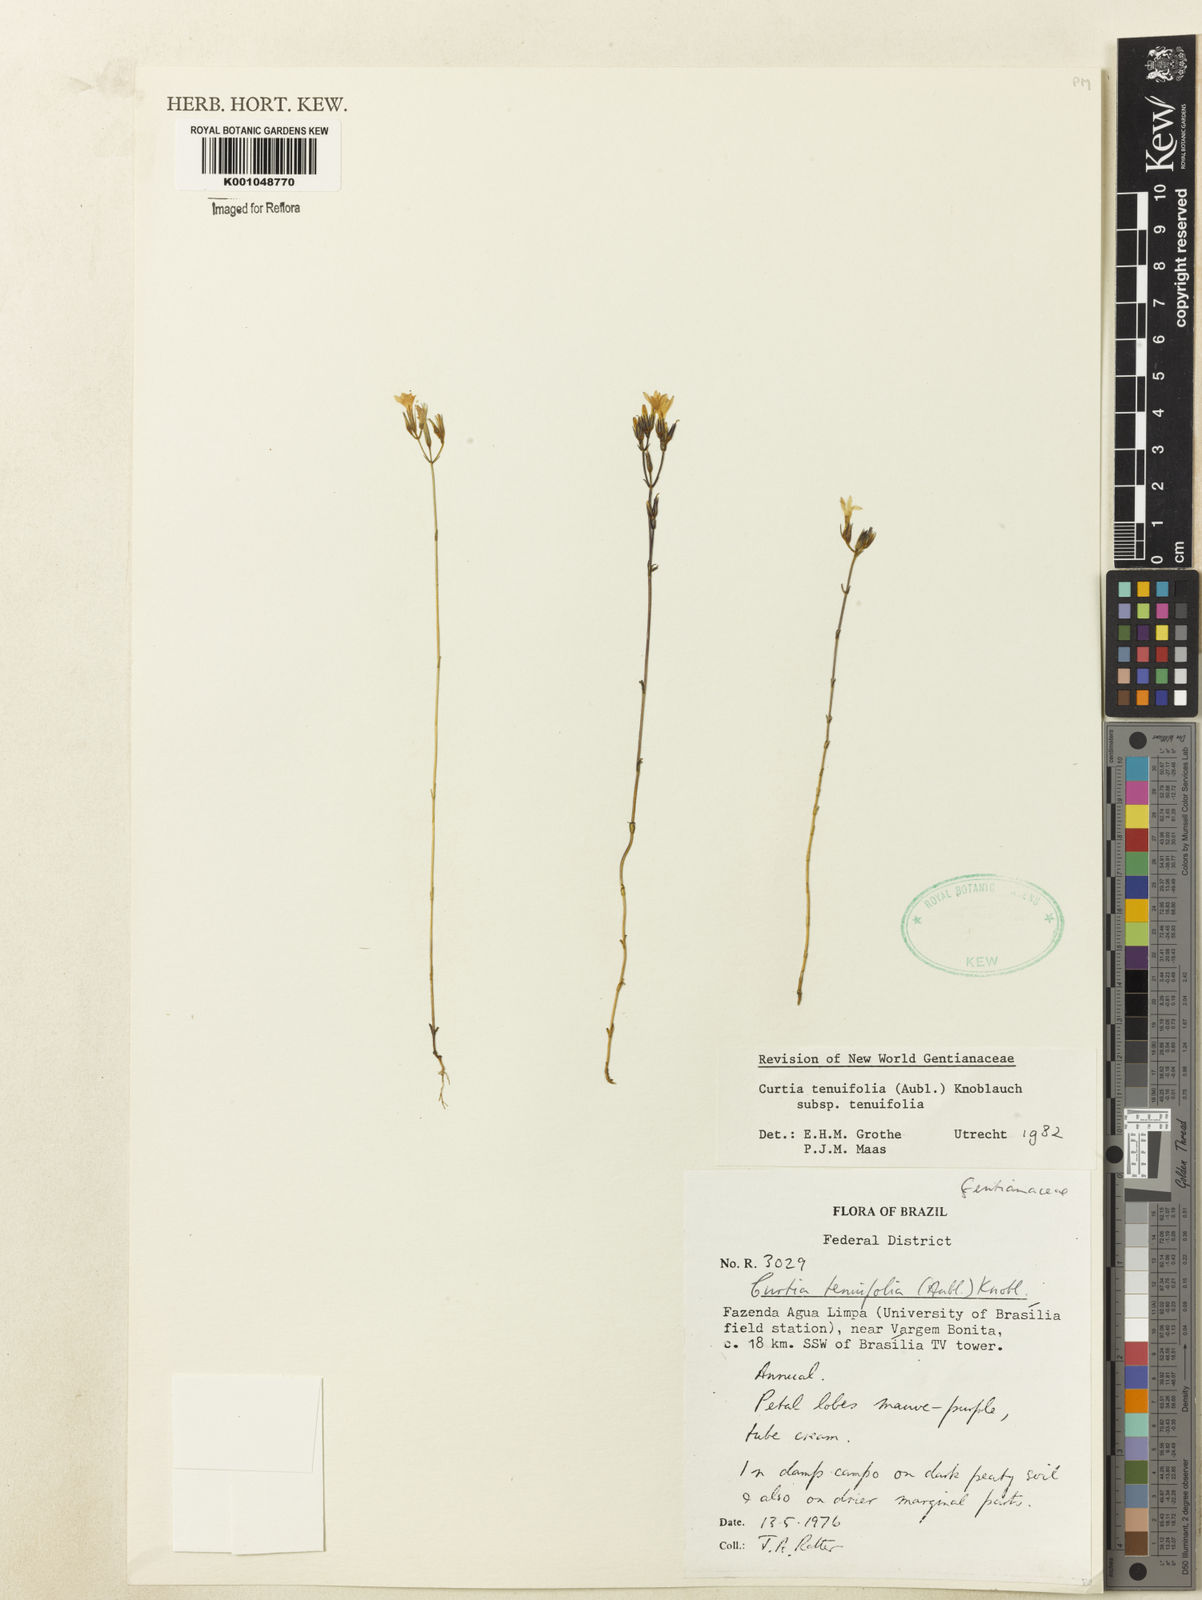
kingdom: Plantae
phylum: Tracheophyta
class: Magnoliopsida
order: Gentianales
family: Gentianaceae
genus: Curtia
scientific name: Curtia tenuifolia
